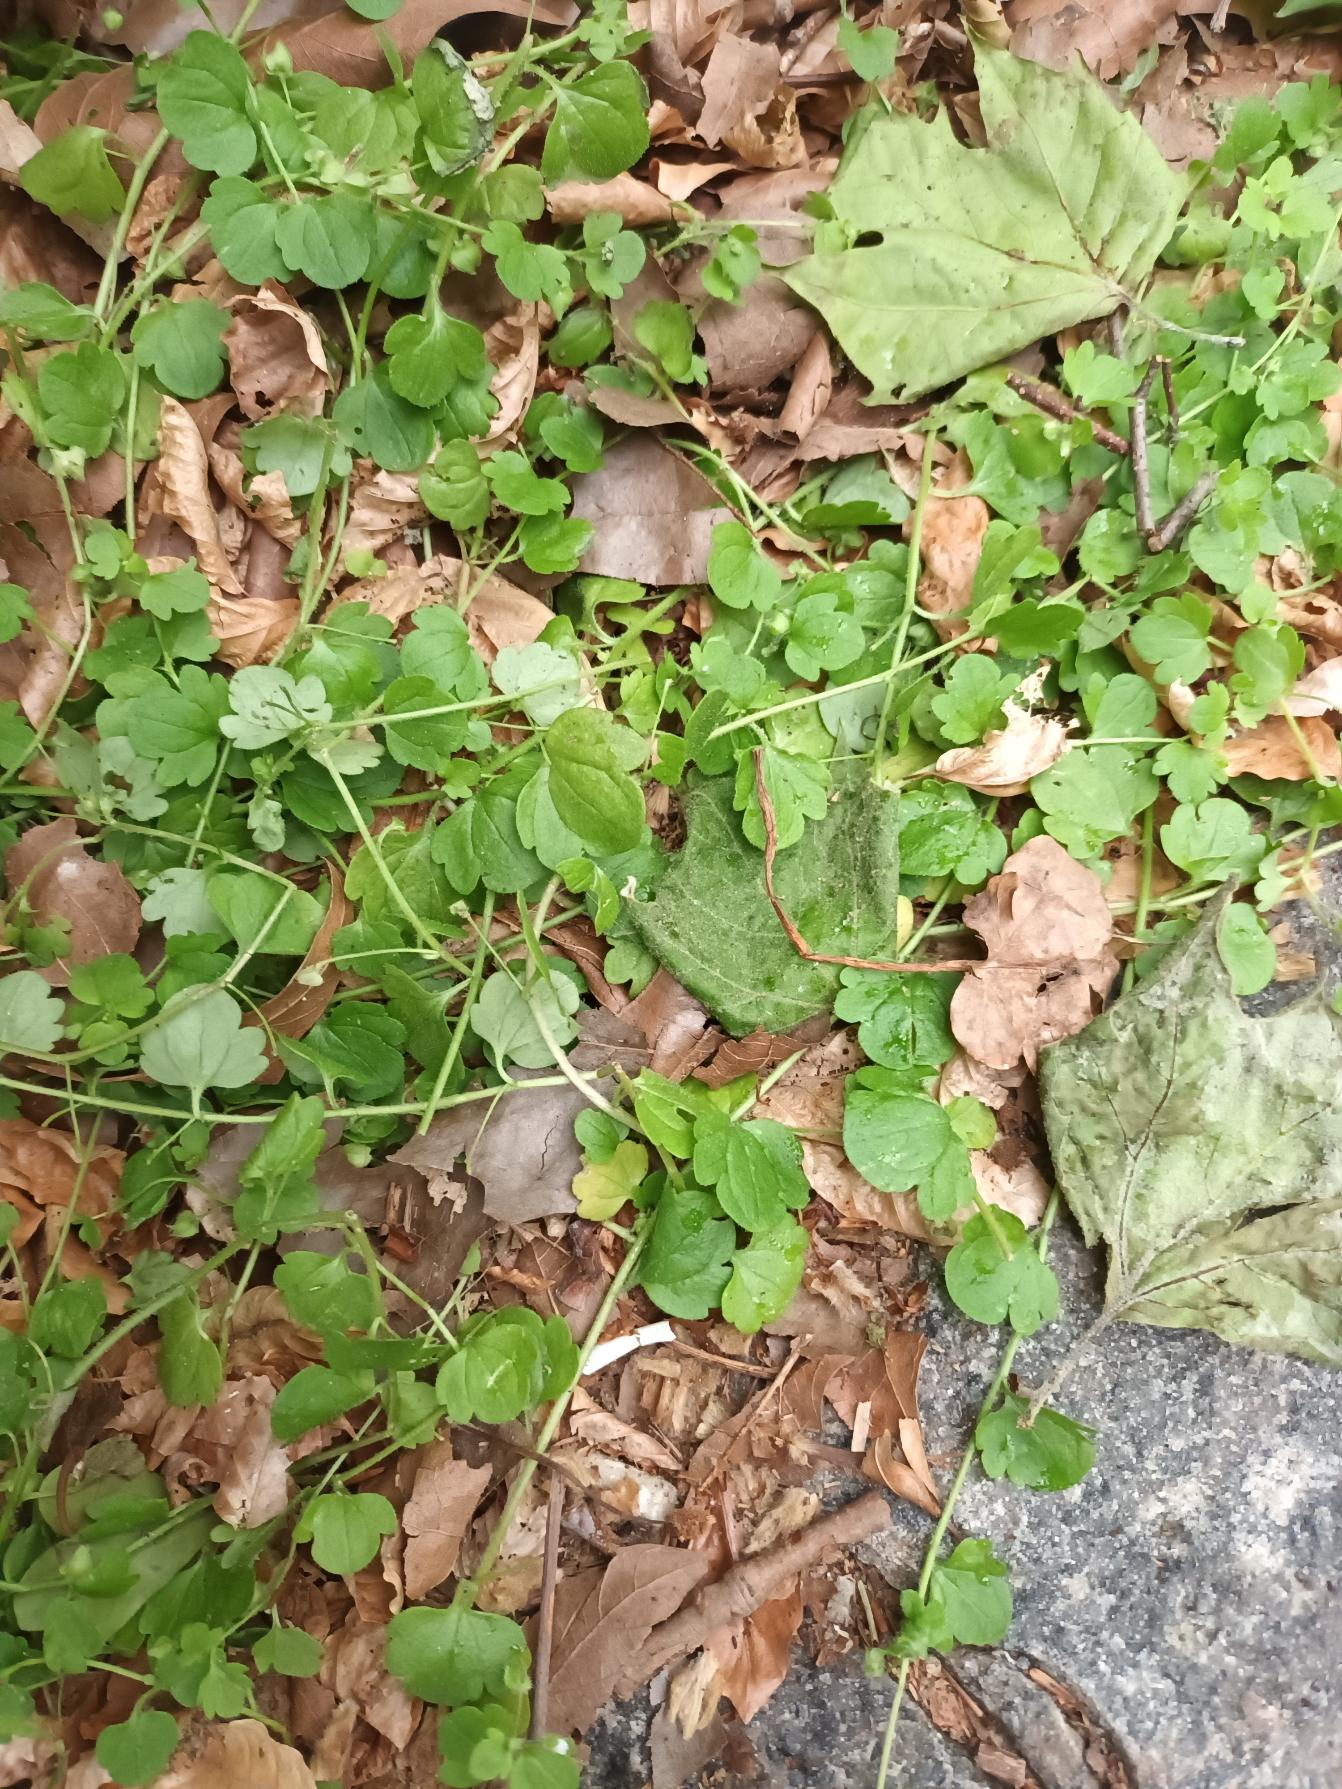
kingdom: Plantae
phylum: Tracheophyta
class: Magnoliopsida
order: Lamiales
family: Plantaginaceae
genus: Veronica
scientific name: Veronica sublobata
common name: Krat-ærenpris
